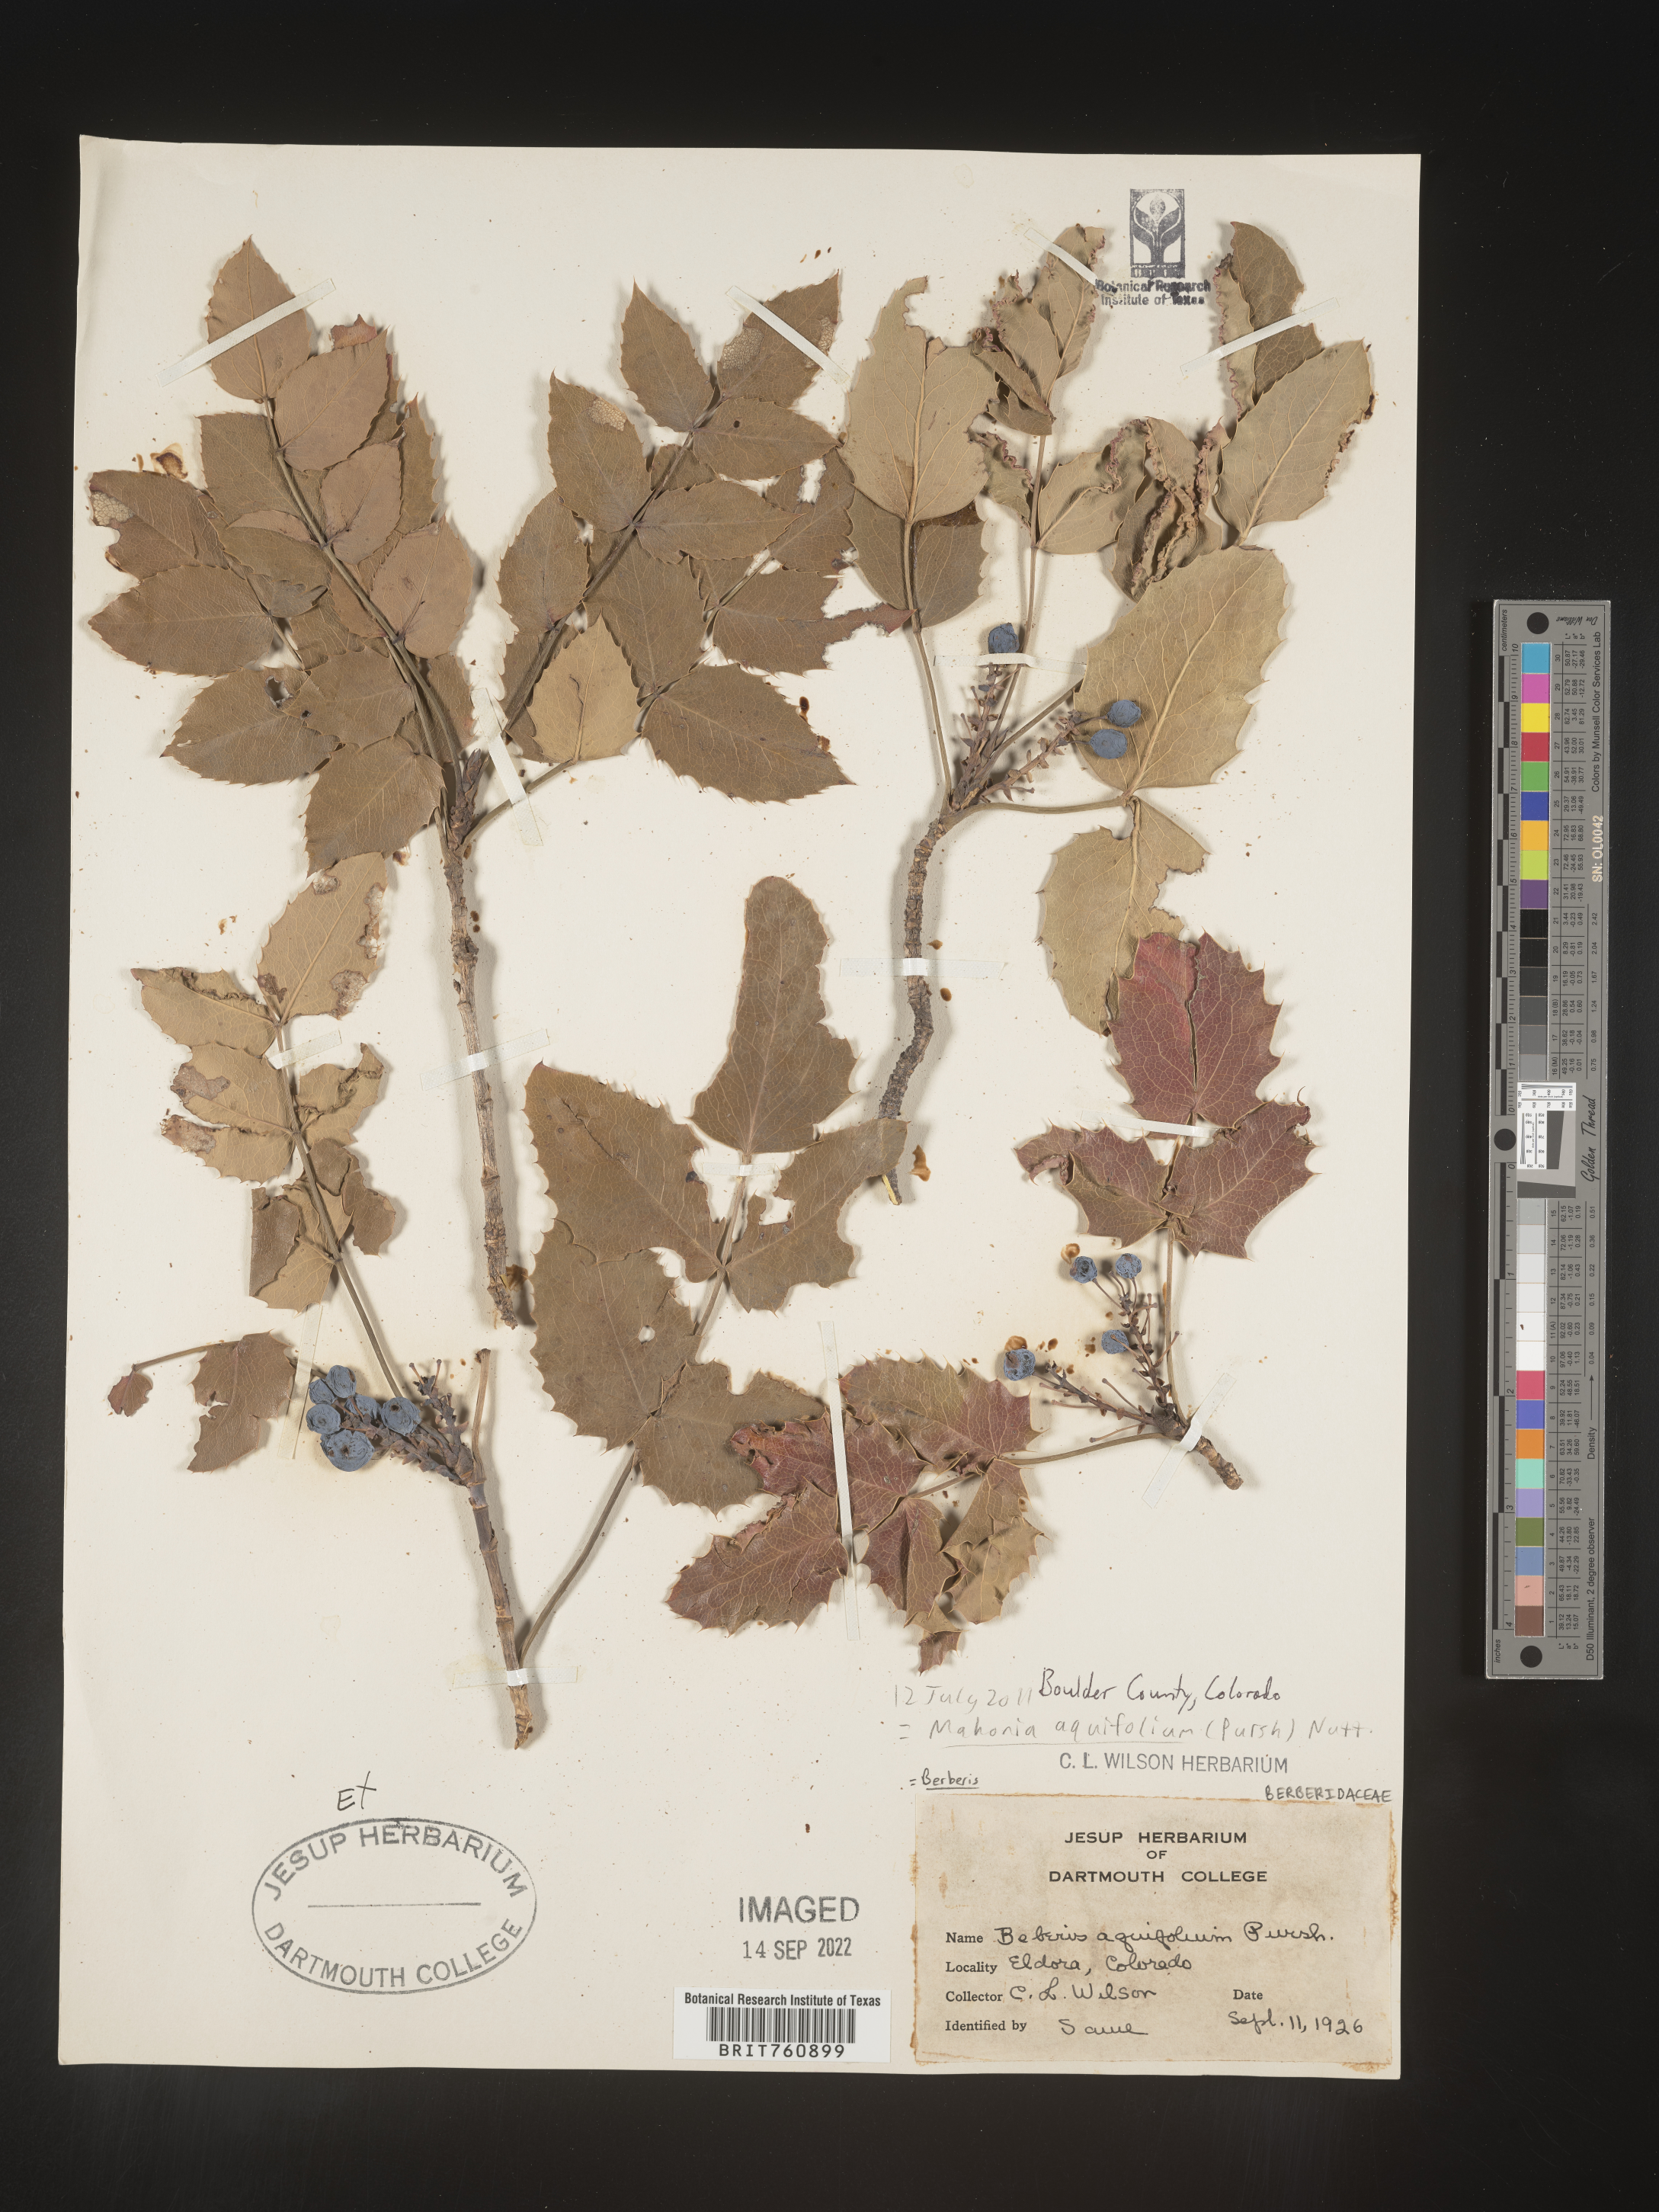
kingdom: Plantae
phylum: Tracheophyta
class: Magnoliopsida
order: Ranunculales
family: Berberidaceae
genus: Mahonia
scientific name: Mahonia aquifolium
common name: Oregon-grape
